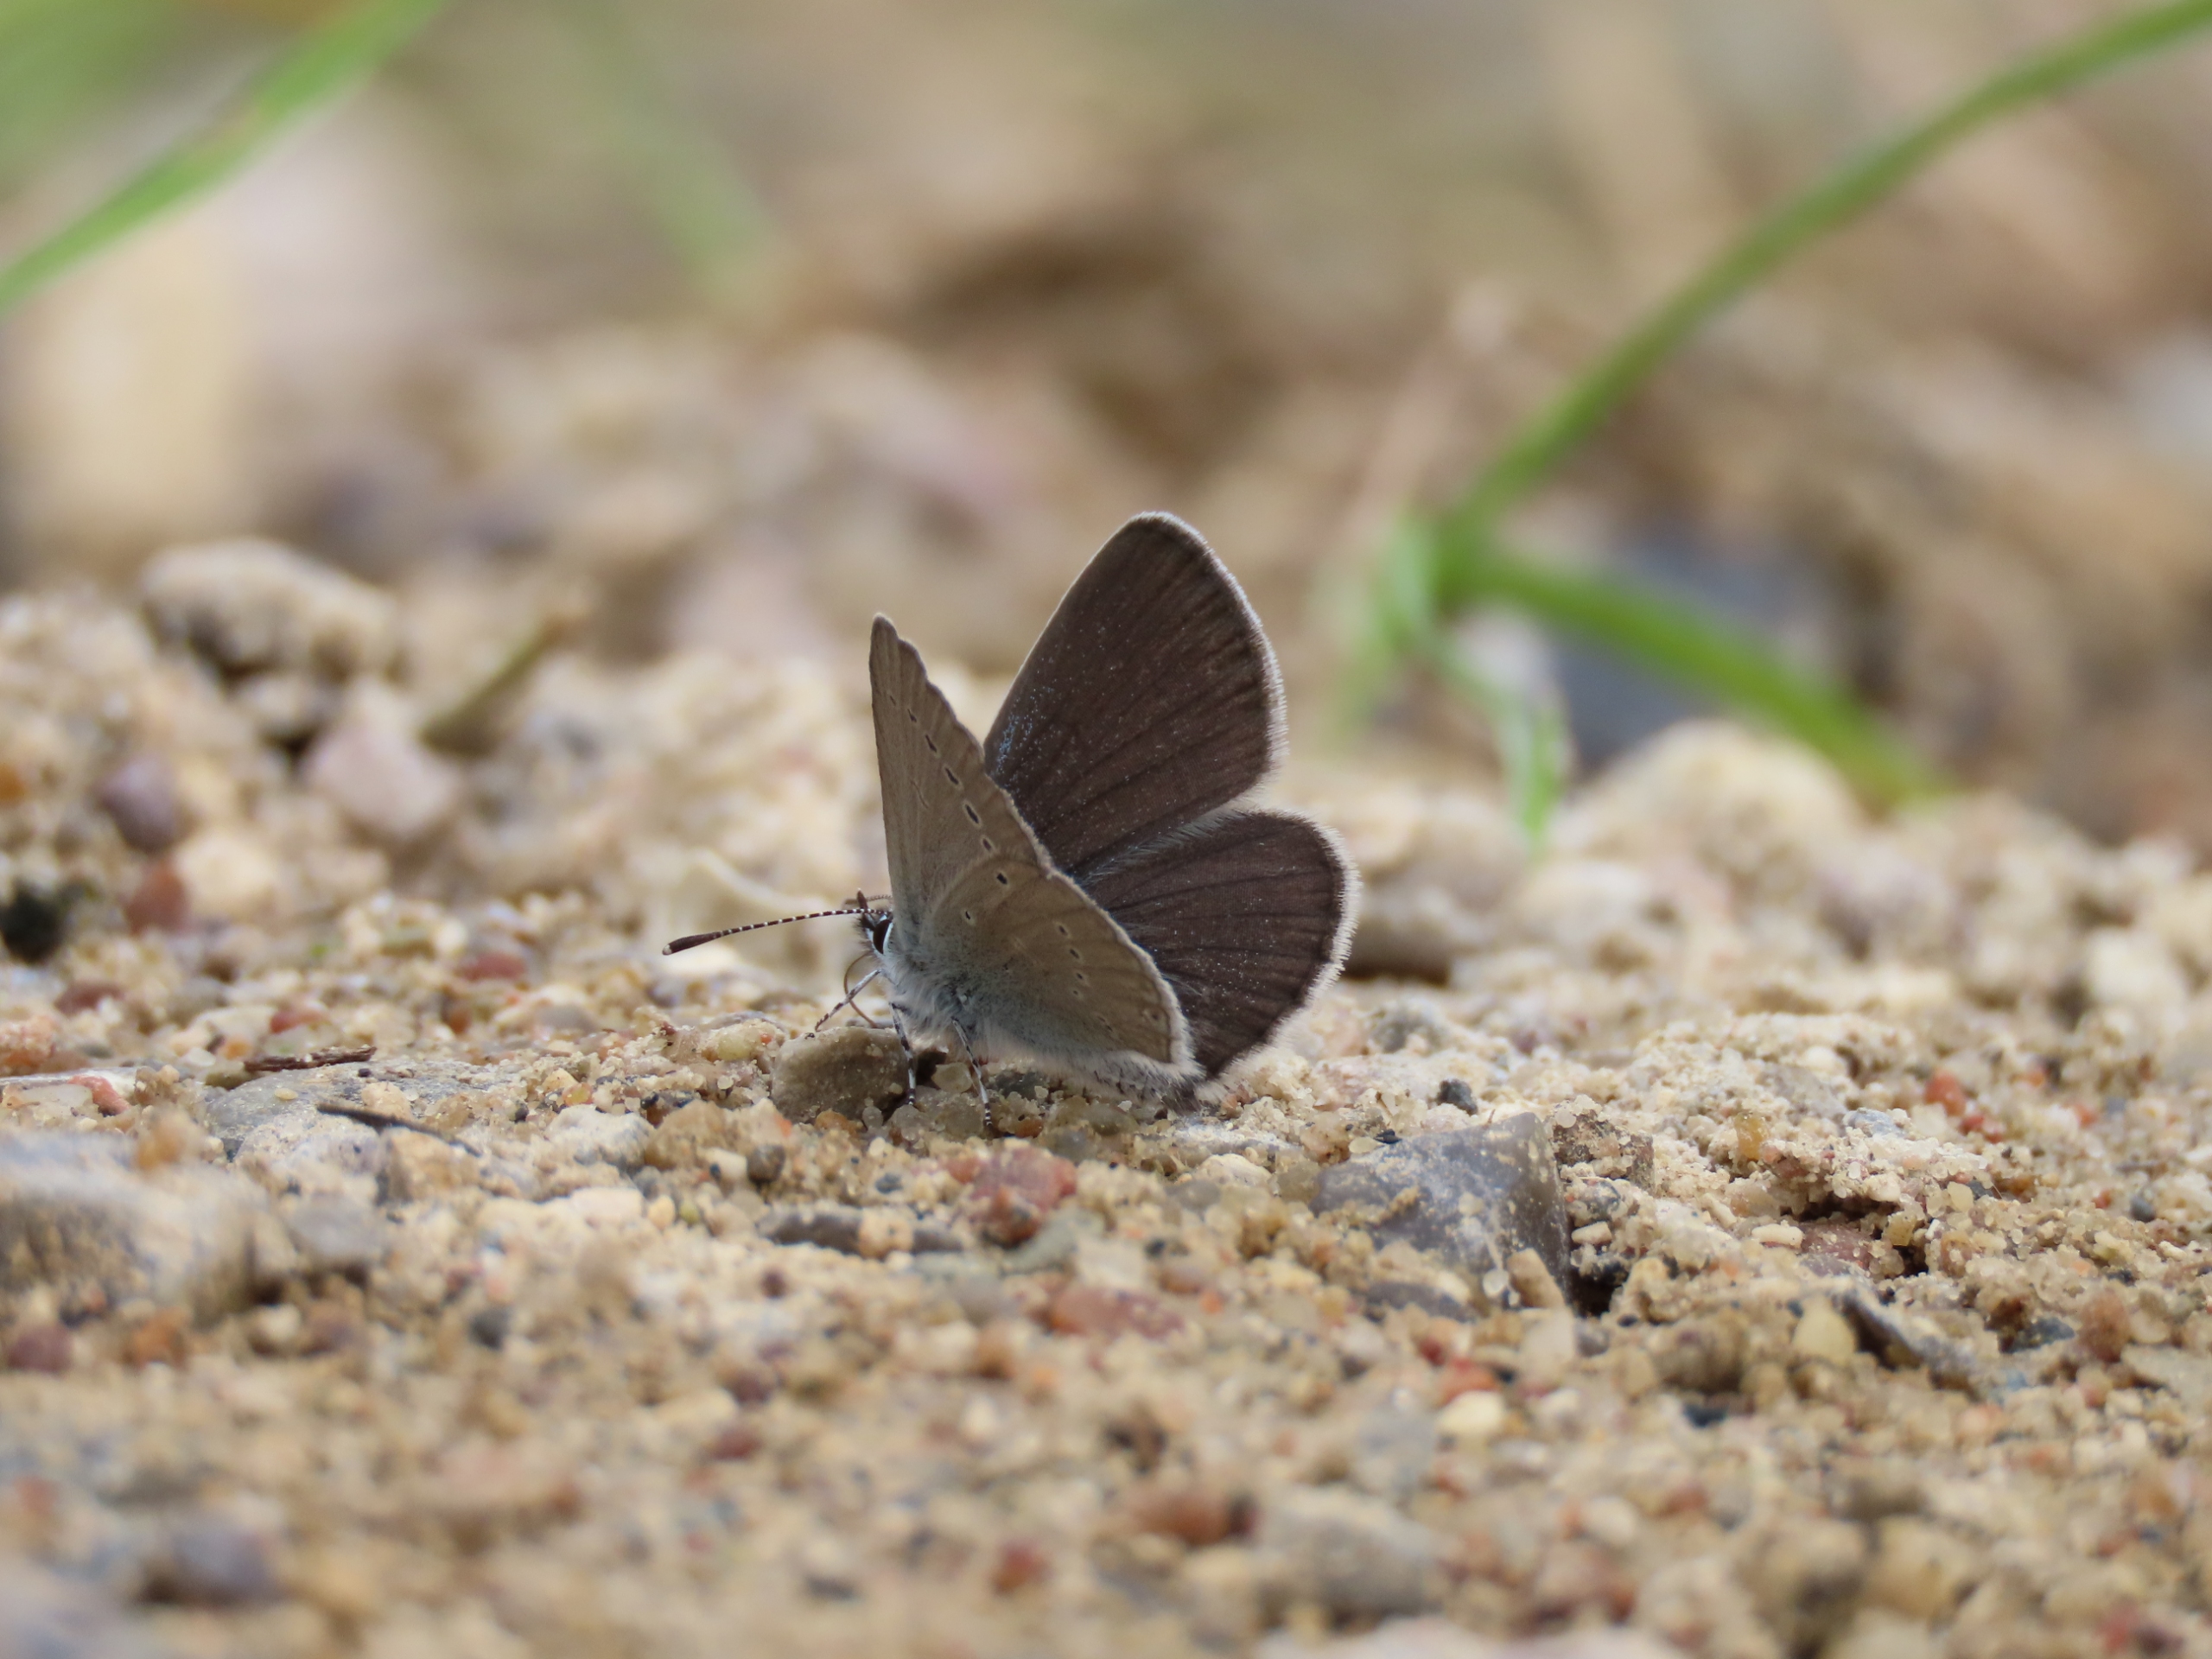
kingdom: Animalia
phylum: Arthropoda
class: Insecta
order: Lepidoptera
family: Lycaenidae
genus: Cupido
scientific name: Cupido minimus
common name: Dværgblåfugl
